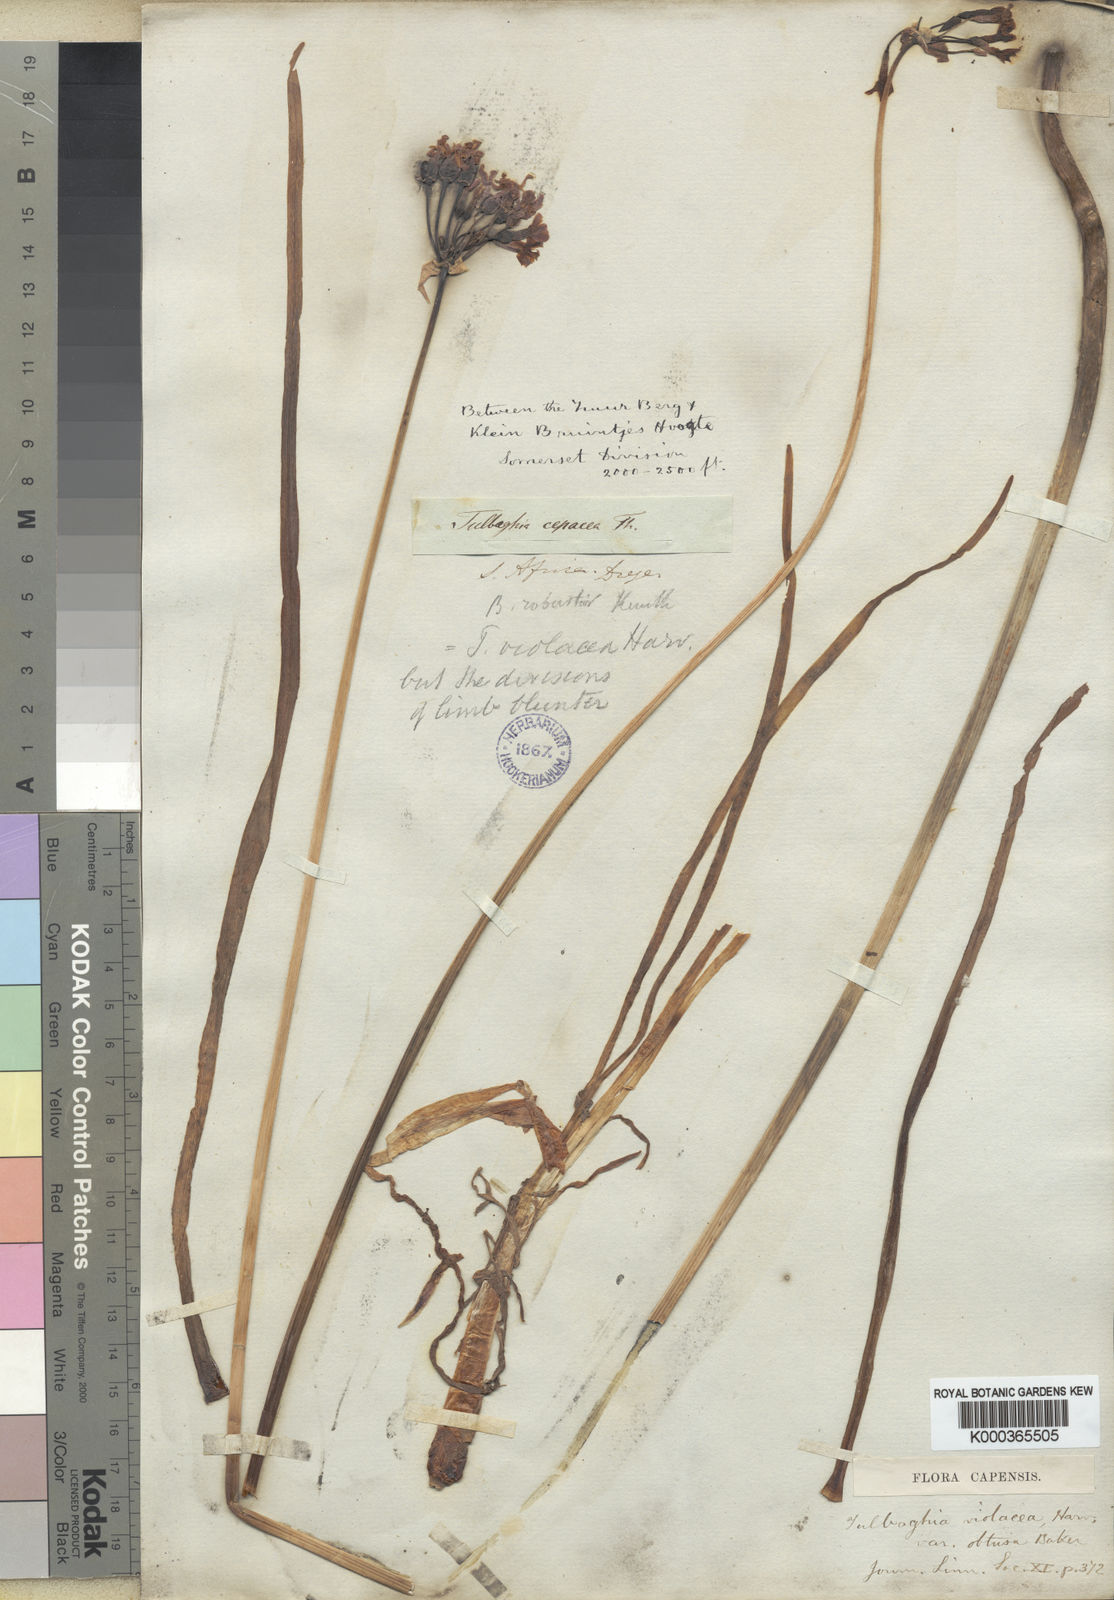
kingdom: Plantae
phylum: Tracheophyta
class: Liliopsida
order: Asparagales
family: Amaryllidaceae
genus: Tulbaghia
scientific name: Tulbaghia violacea
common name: Society garlic
